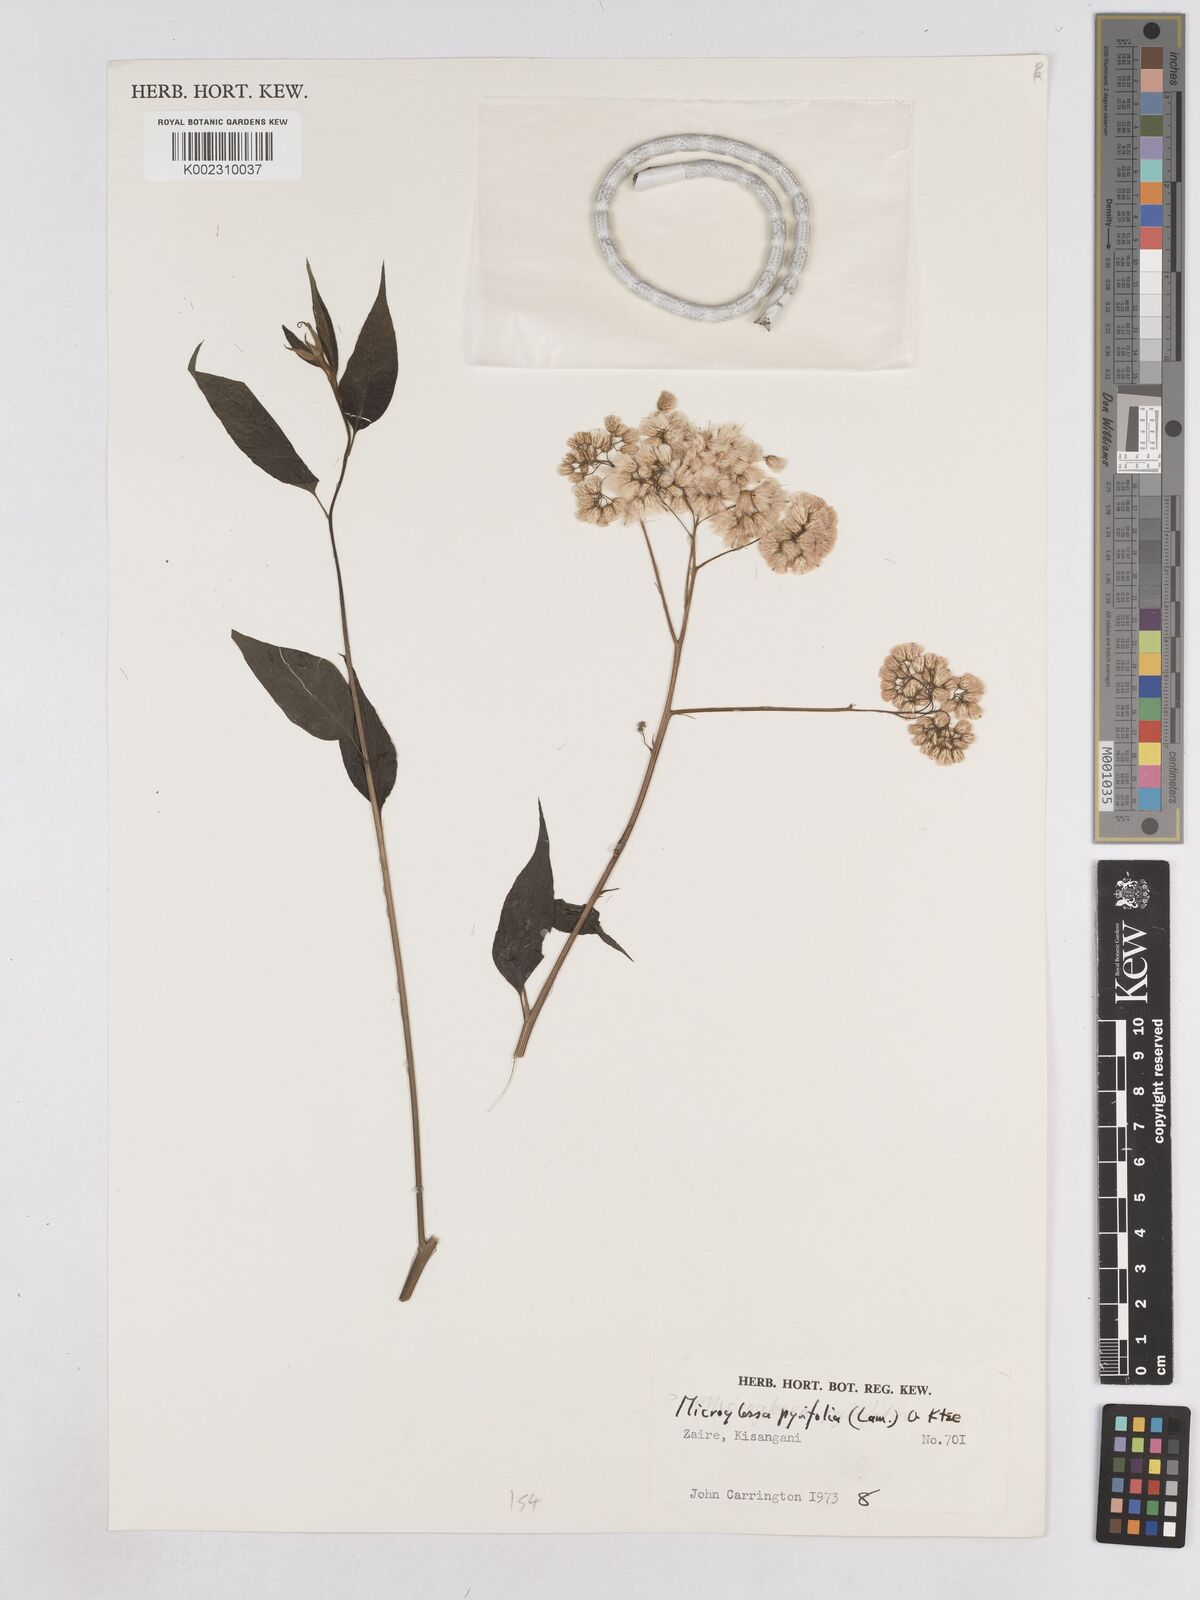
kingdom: Plantae
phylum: Tracheophyta
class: Magnoliopsida
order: Asterales
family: Asteraceae
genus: Microglossa
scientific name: Microglossa pyrifolia
